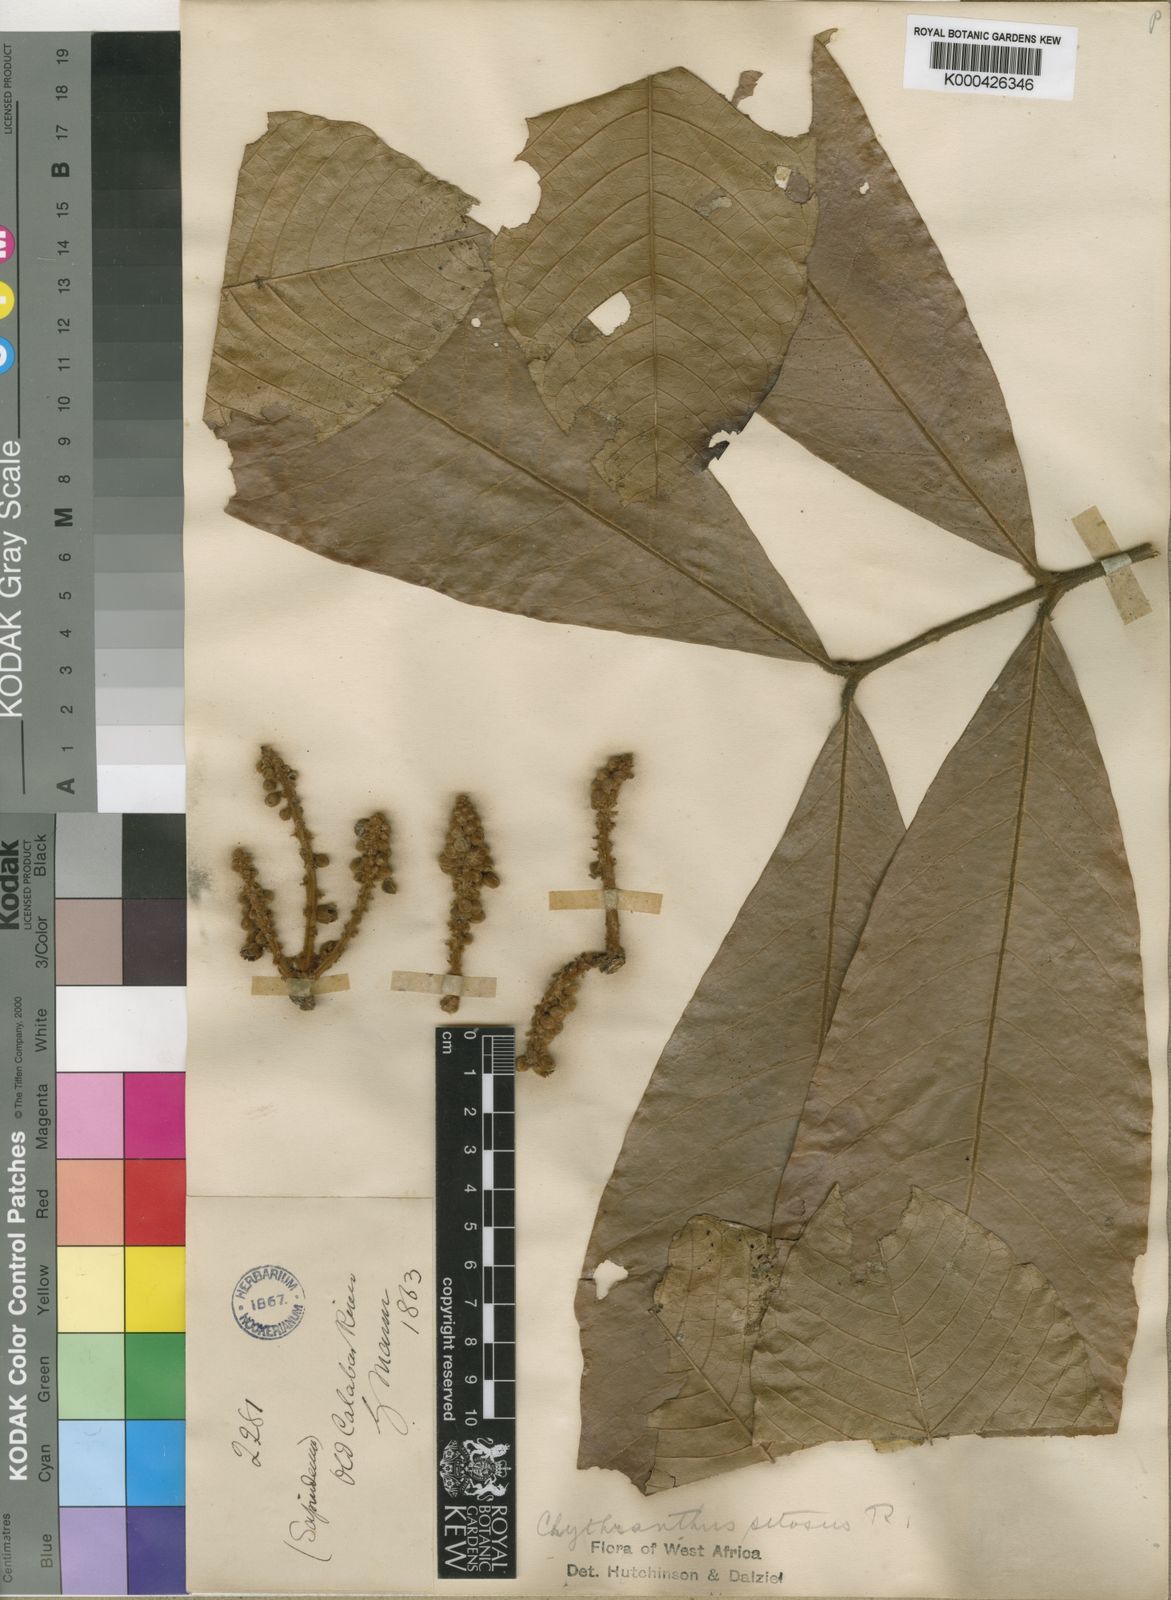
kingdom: Plantae
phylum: Tracheophyta
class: Magnoliopsida
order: Sapindales
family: Sapindaceae
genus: Chytranthus
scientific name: Chytranthus setosus
